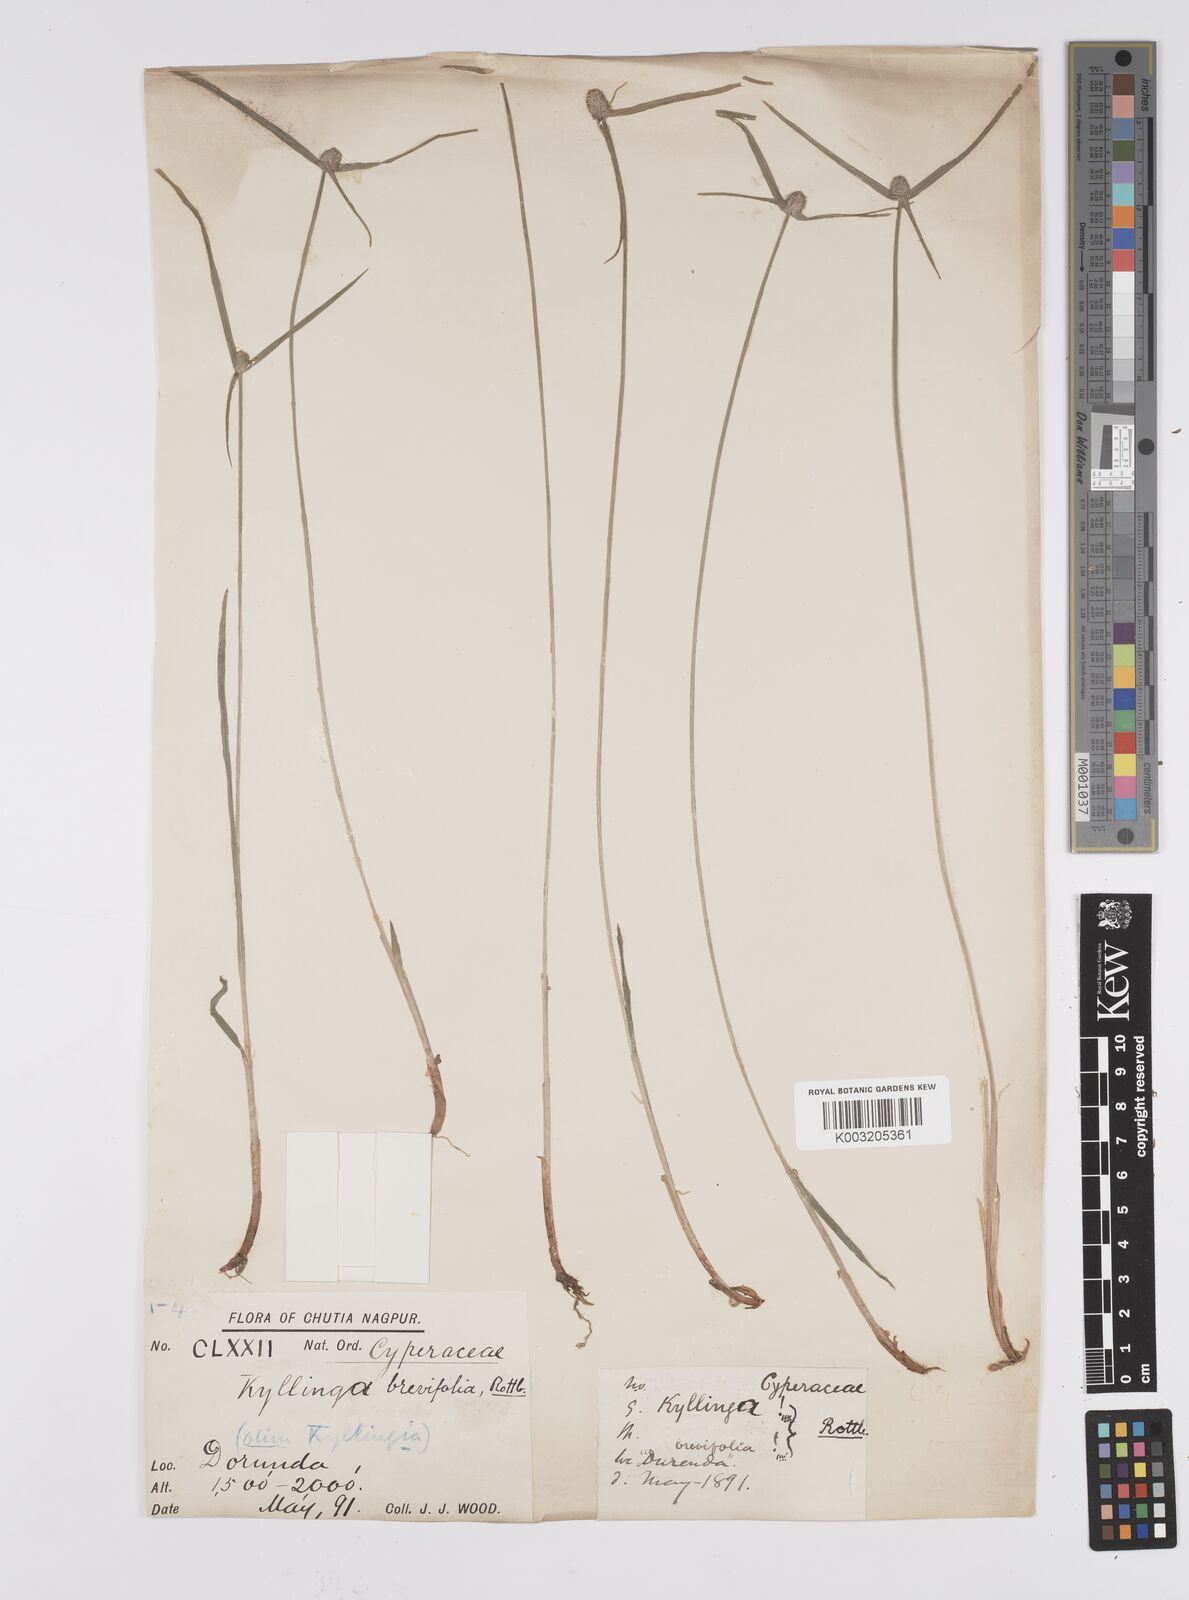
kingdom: Plantae
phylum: Tracheophyta
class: Liliopsida
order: Poales
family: Cyperaceae
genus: Cyperus
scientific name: Cyperus brevifolius
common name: Globe kyllinga
